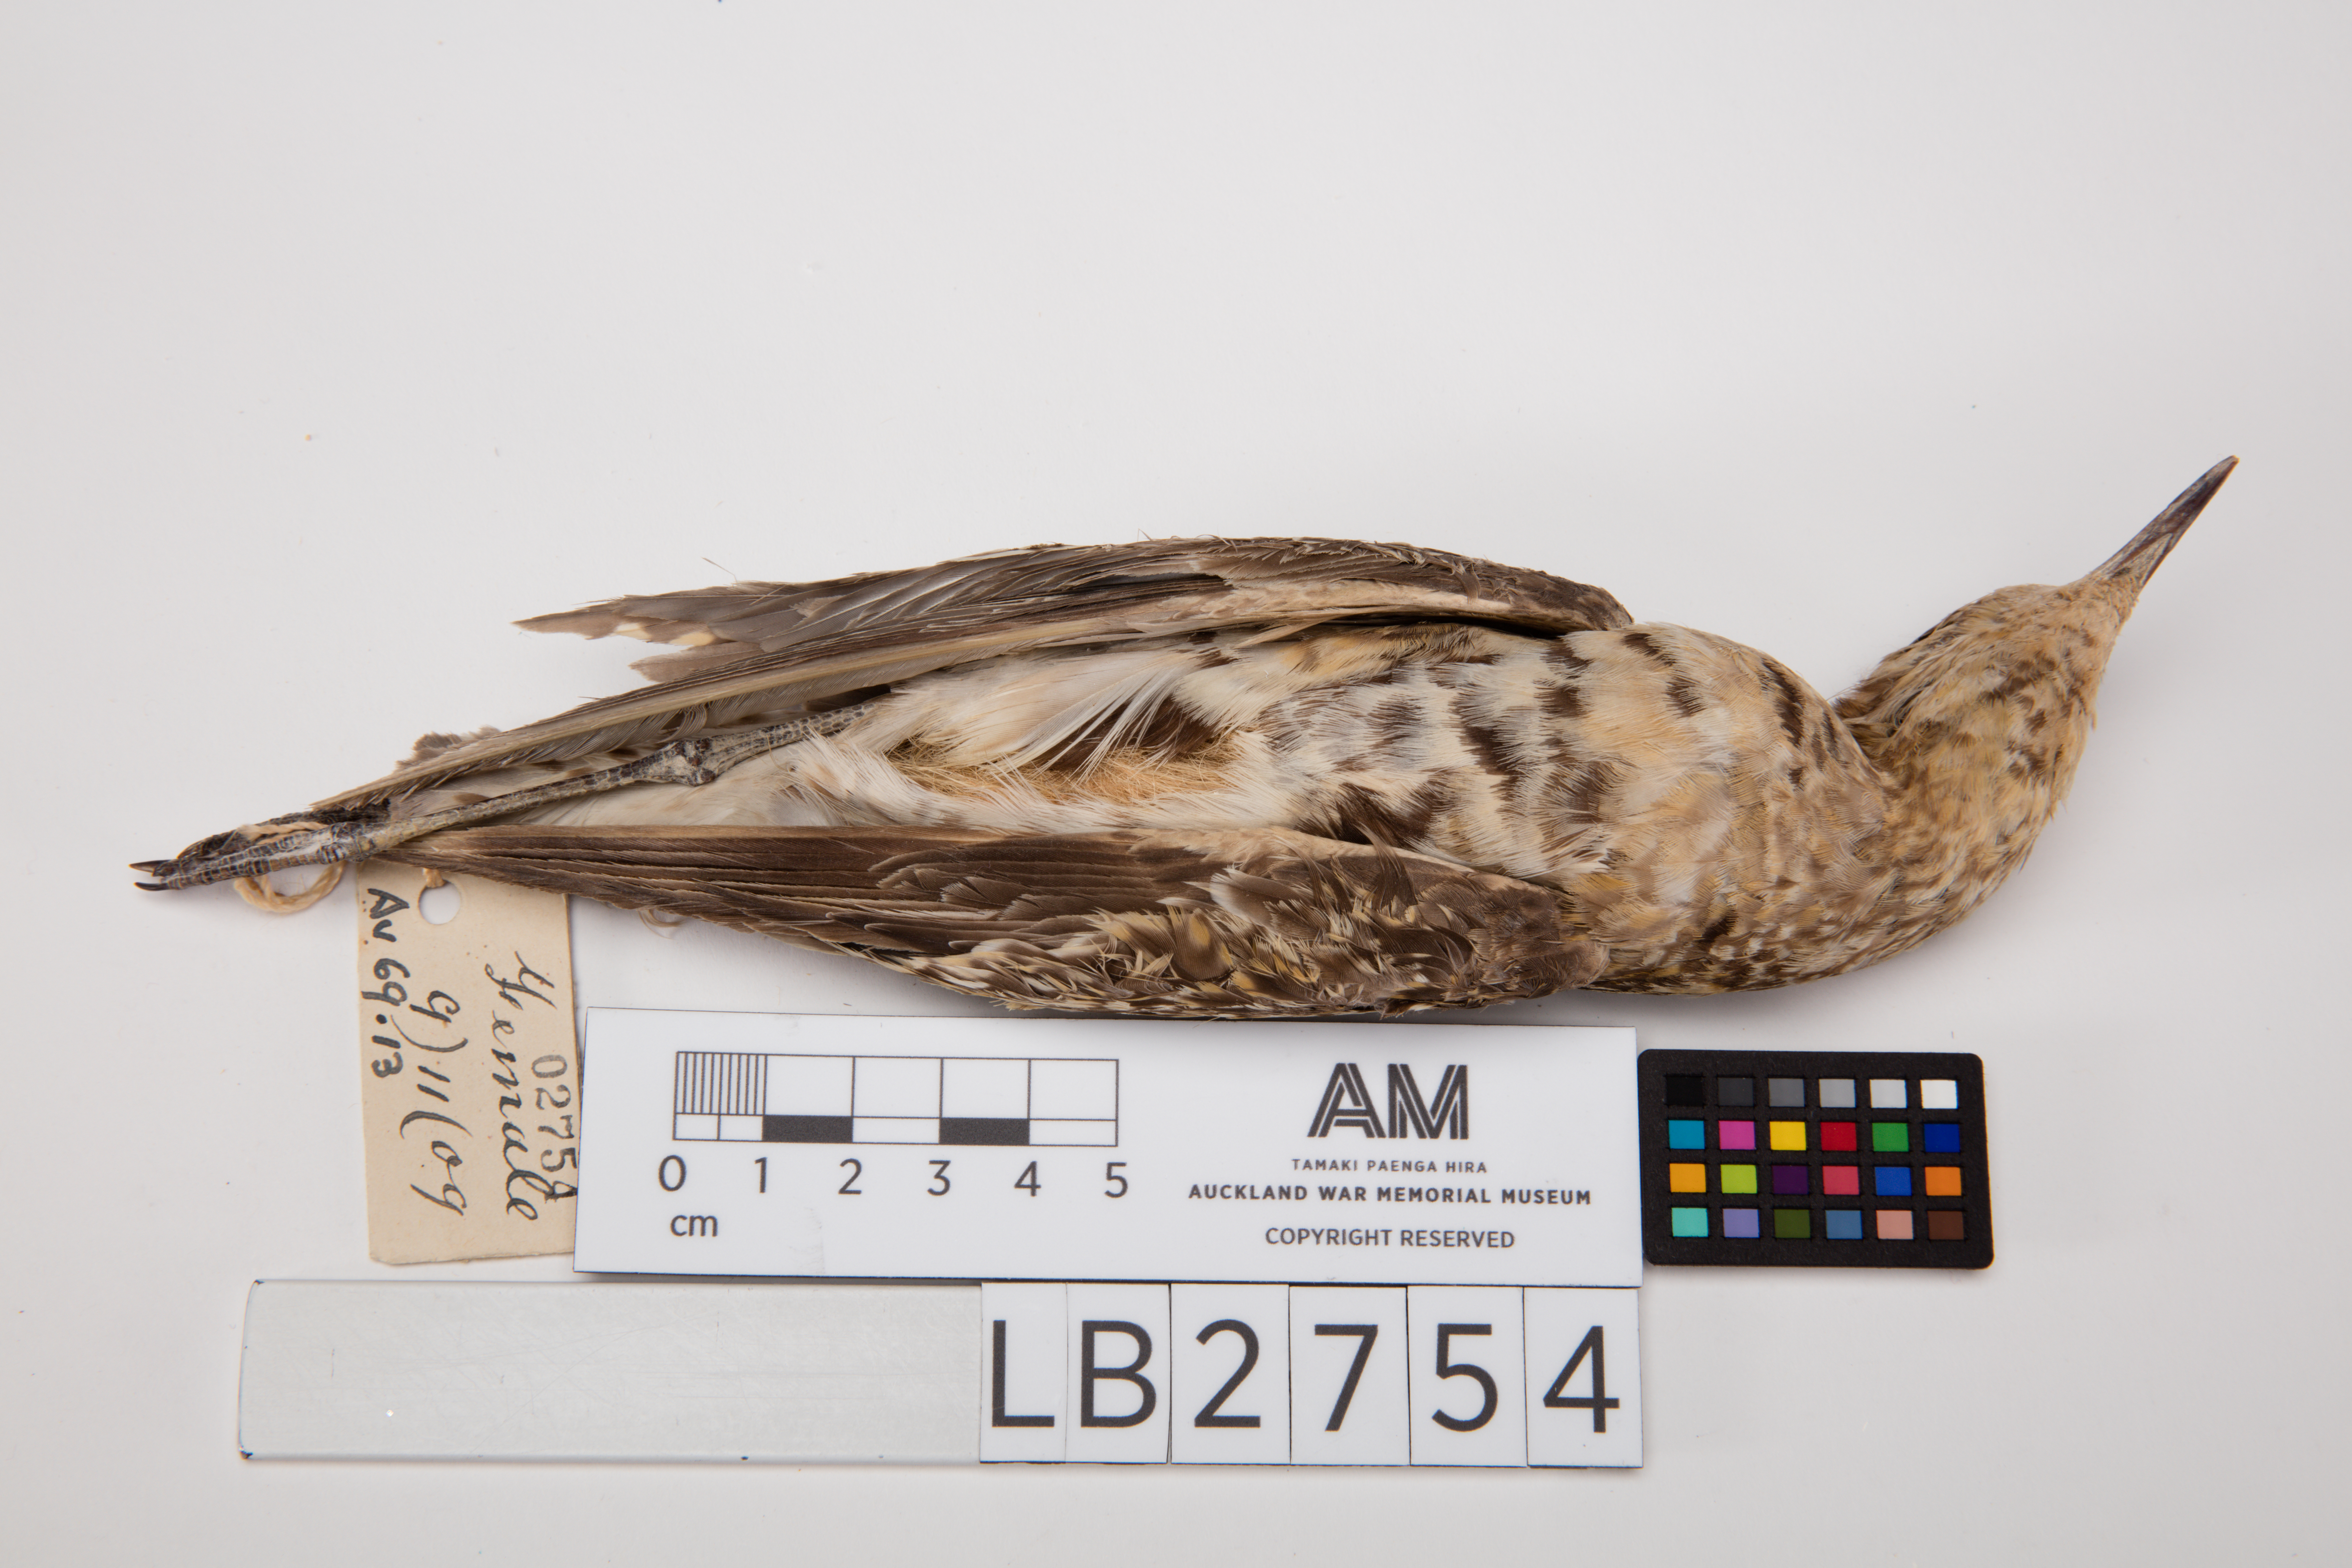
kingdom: Animalia
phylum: Chordata
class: Aves
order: Charadriiformes
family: Charadriidae
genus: Pluvialis
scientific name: Pluvialis fulva
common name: Pacific golden plover
